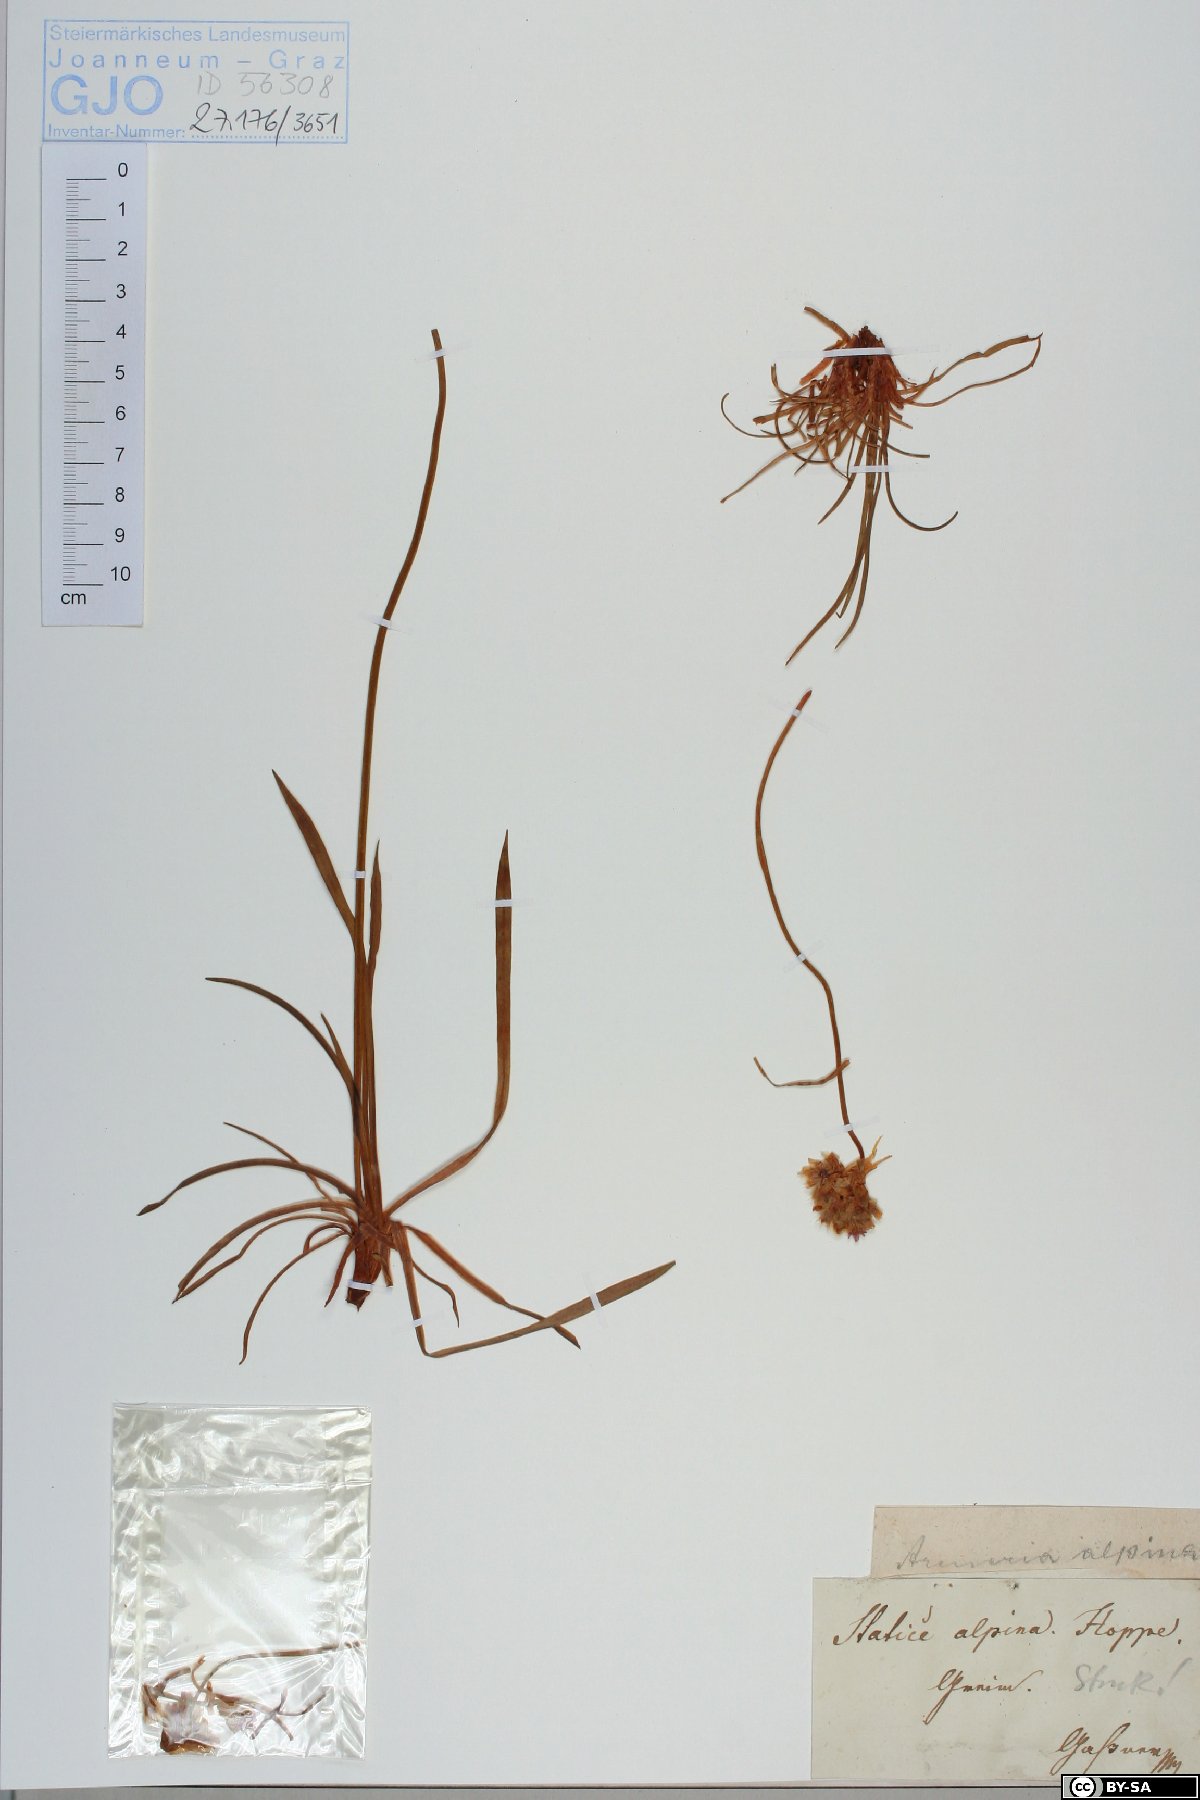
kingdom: Plantae
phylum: Tracheophyta
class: Magnoliopsida
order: Caryophyllales
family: Plumbaginaceae
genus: Armeria
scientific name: Armeria alpina
